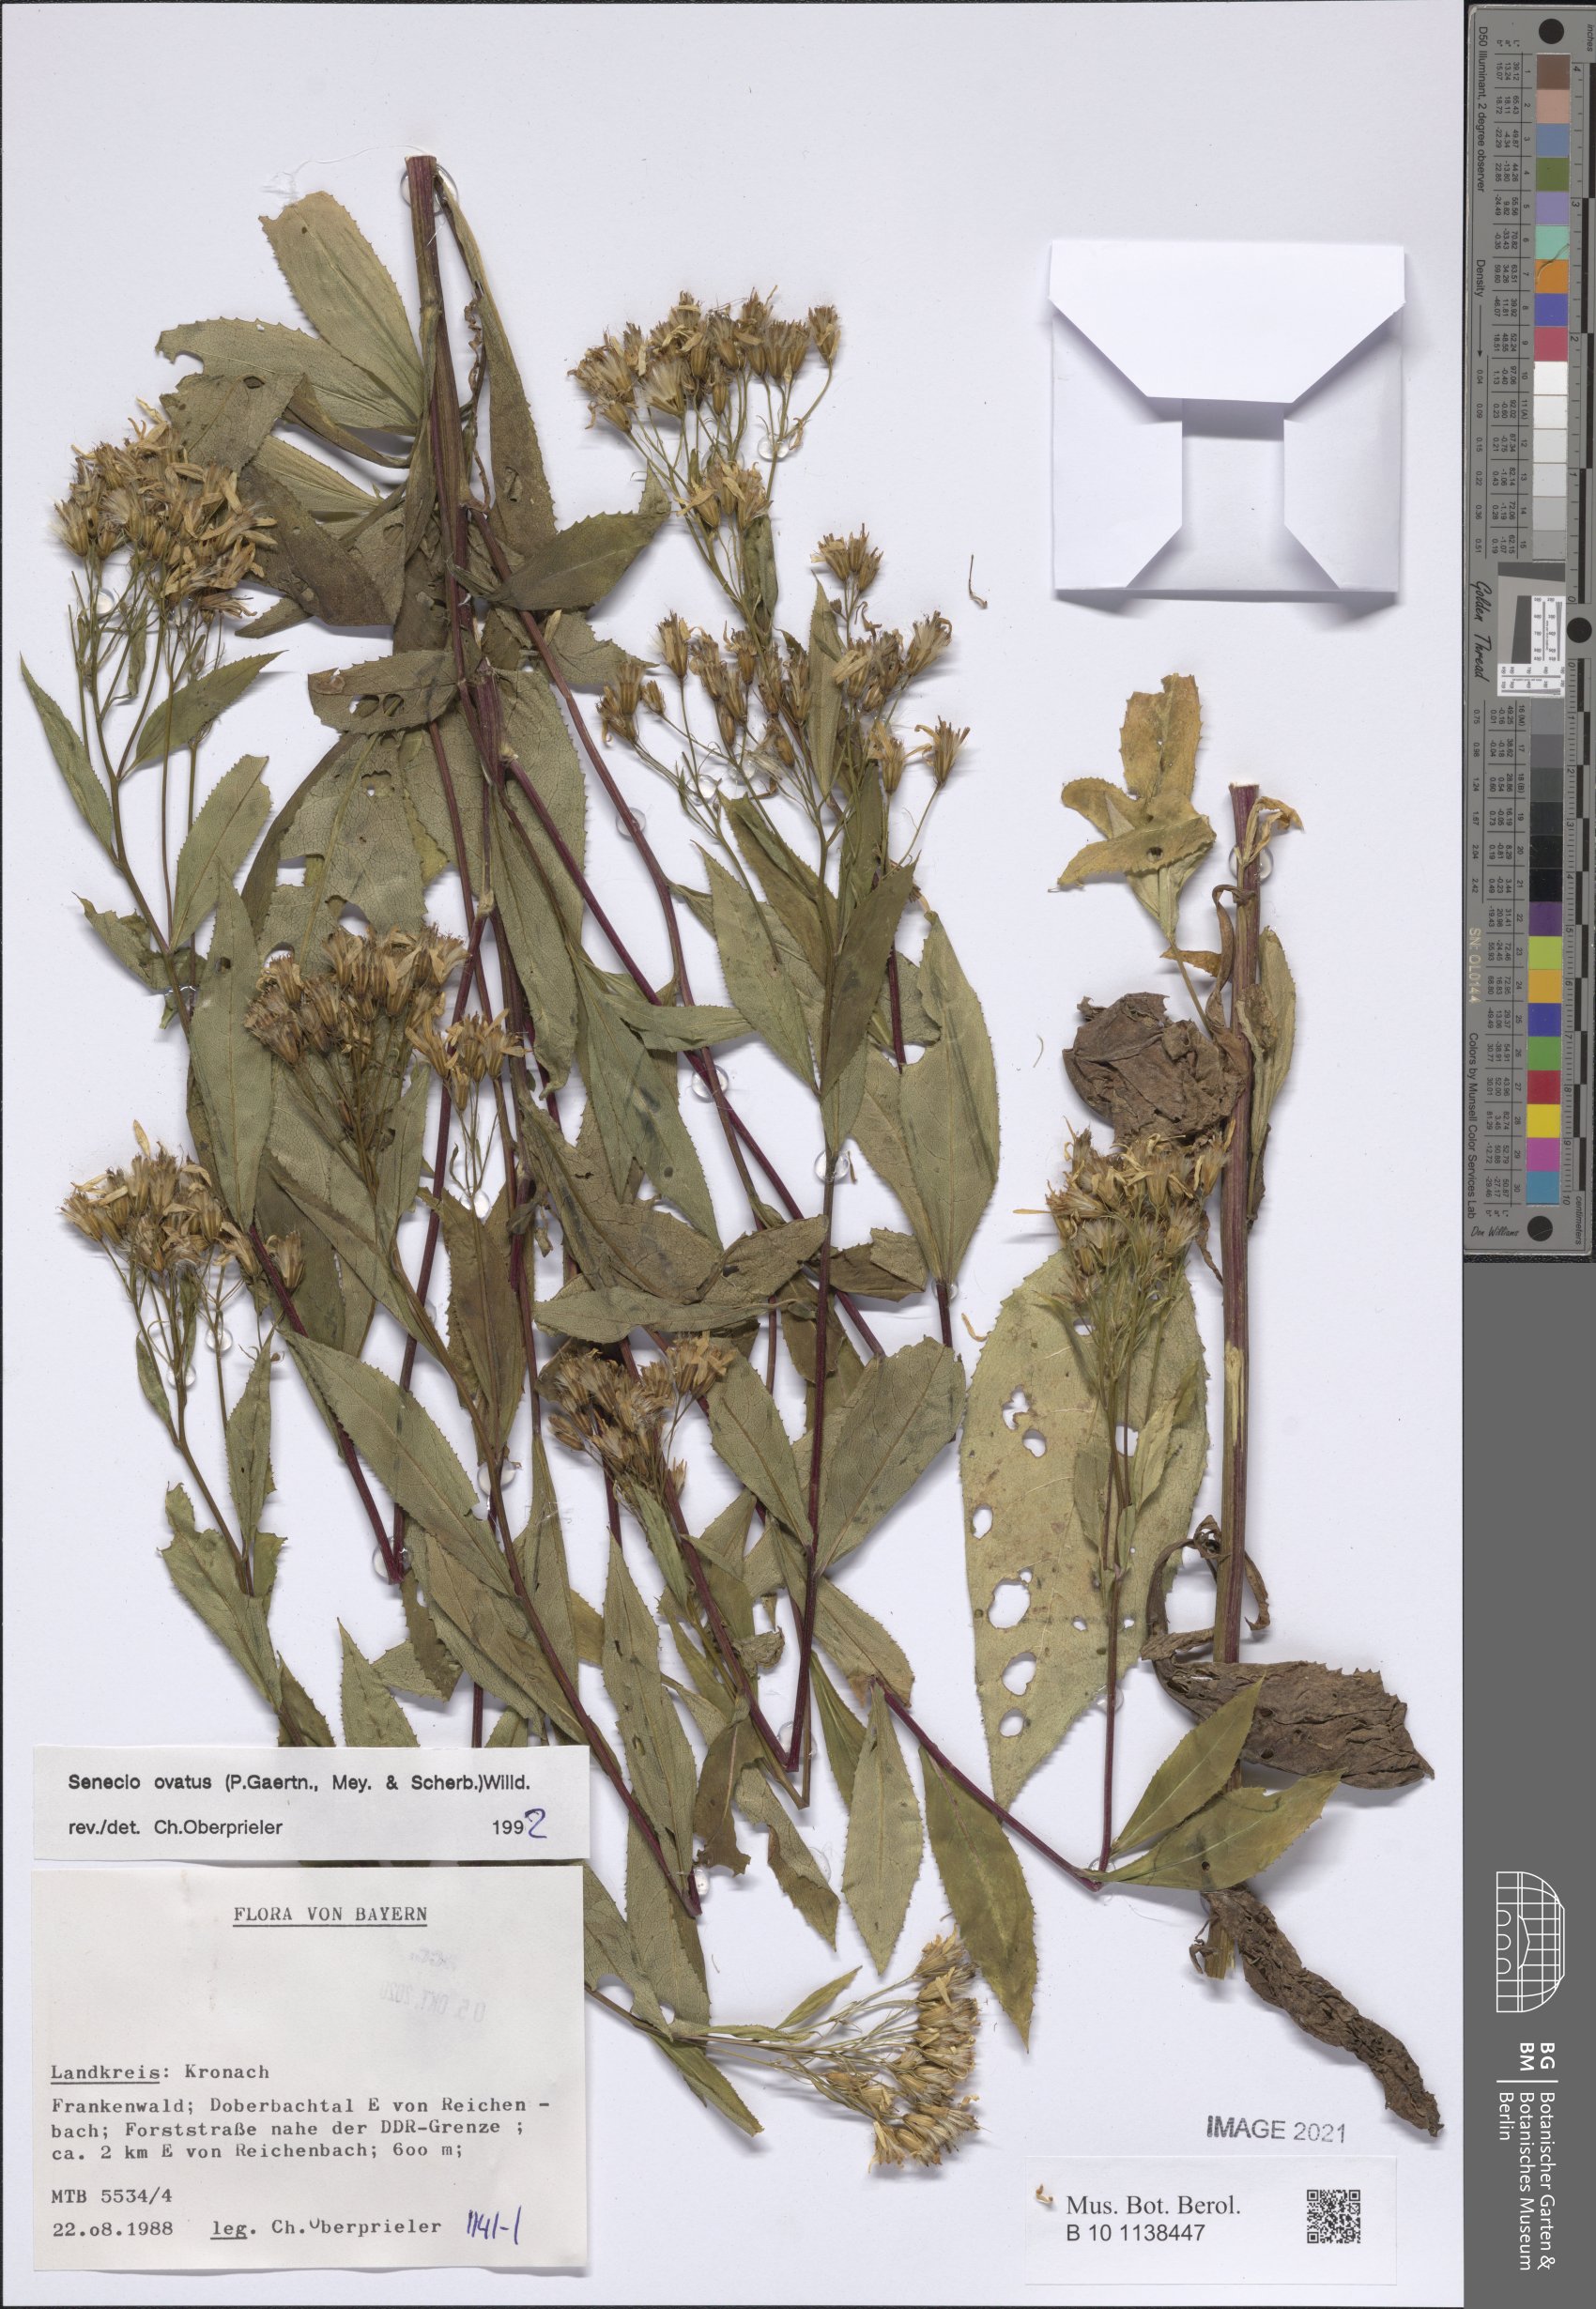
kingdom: Plantae
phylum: Tracheophyta
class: Magnoliopsida
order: Asterales
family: Asteraceae
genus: Senecio
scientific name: Senecio ovatus
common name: Wood ragwort
